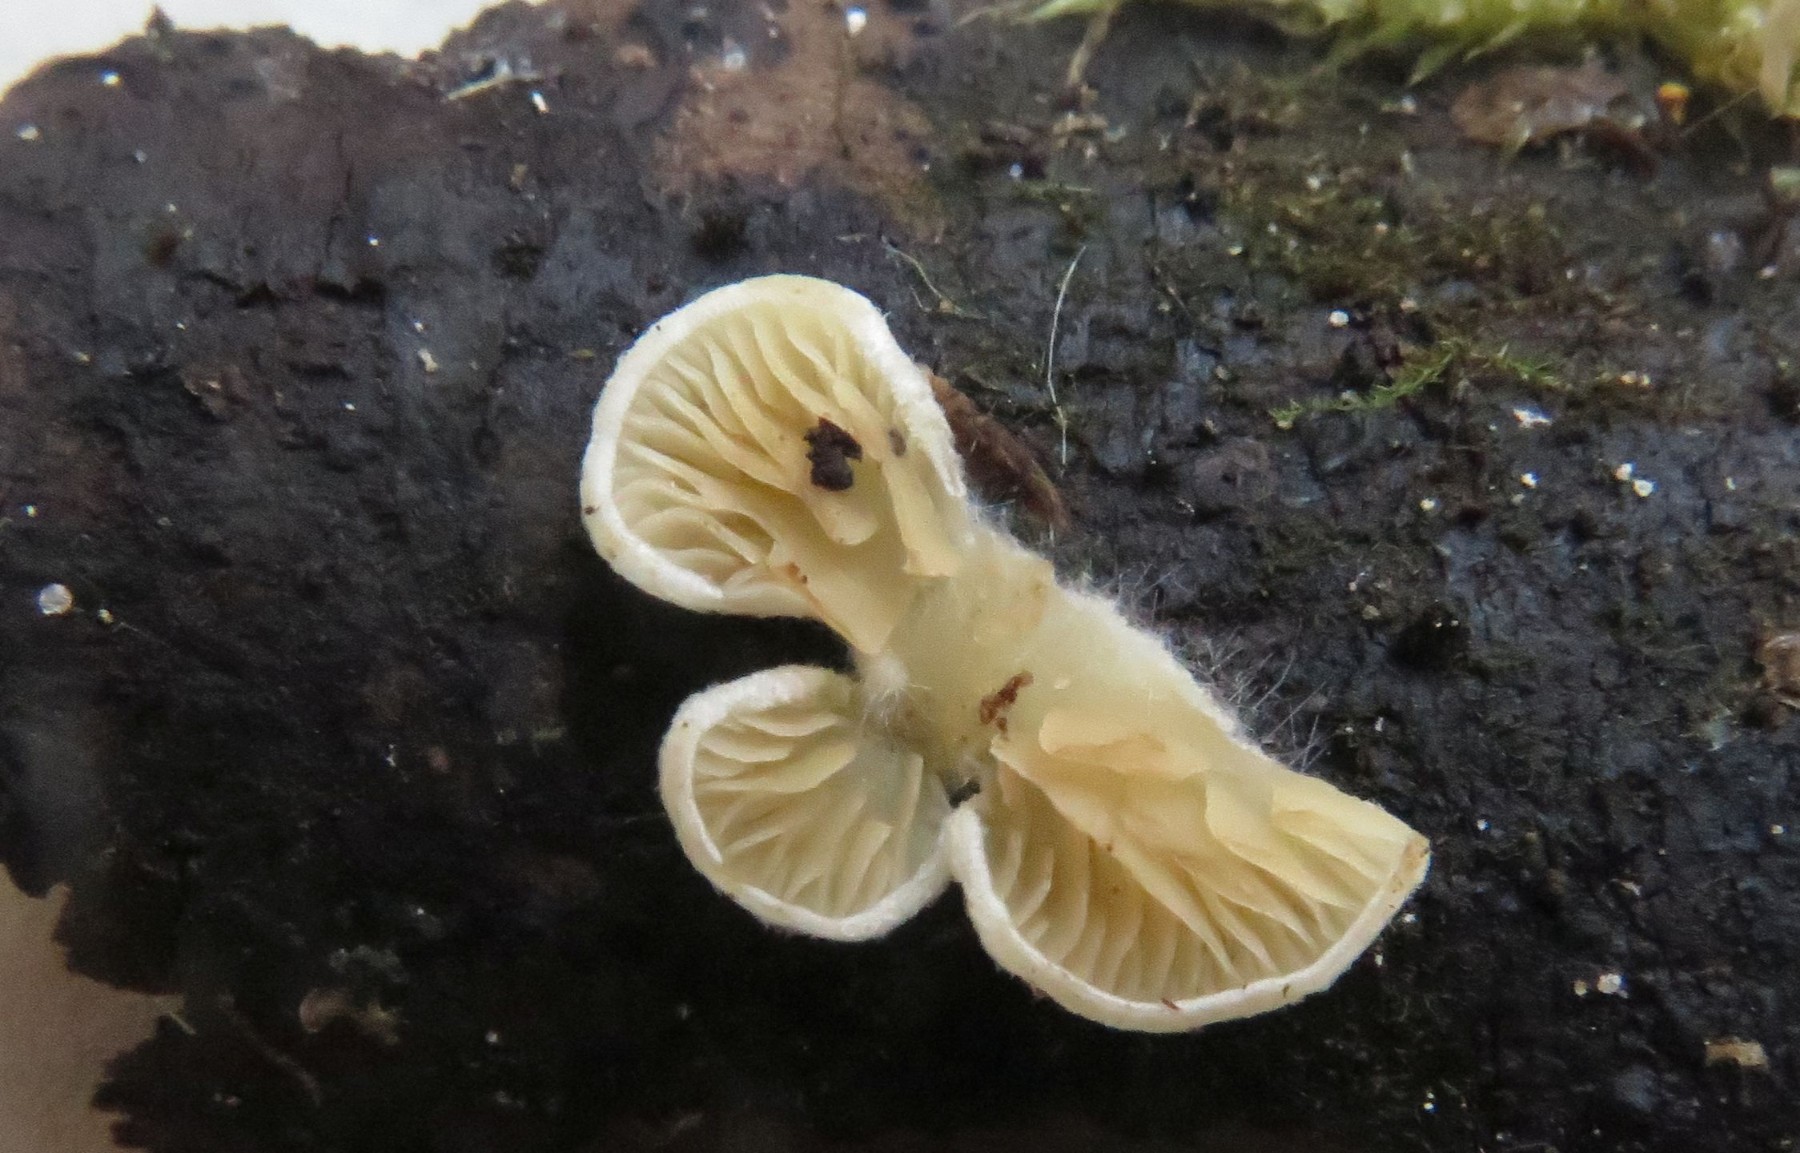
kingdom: Fungi
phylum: Basidiomycota
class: Agaricomycetes
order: Agaricales
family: Crepidotaceae
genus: Crepidotus
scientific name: Crepidotus
